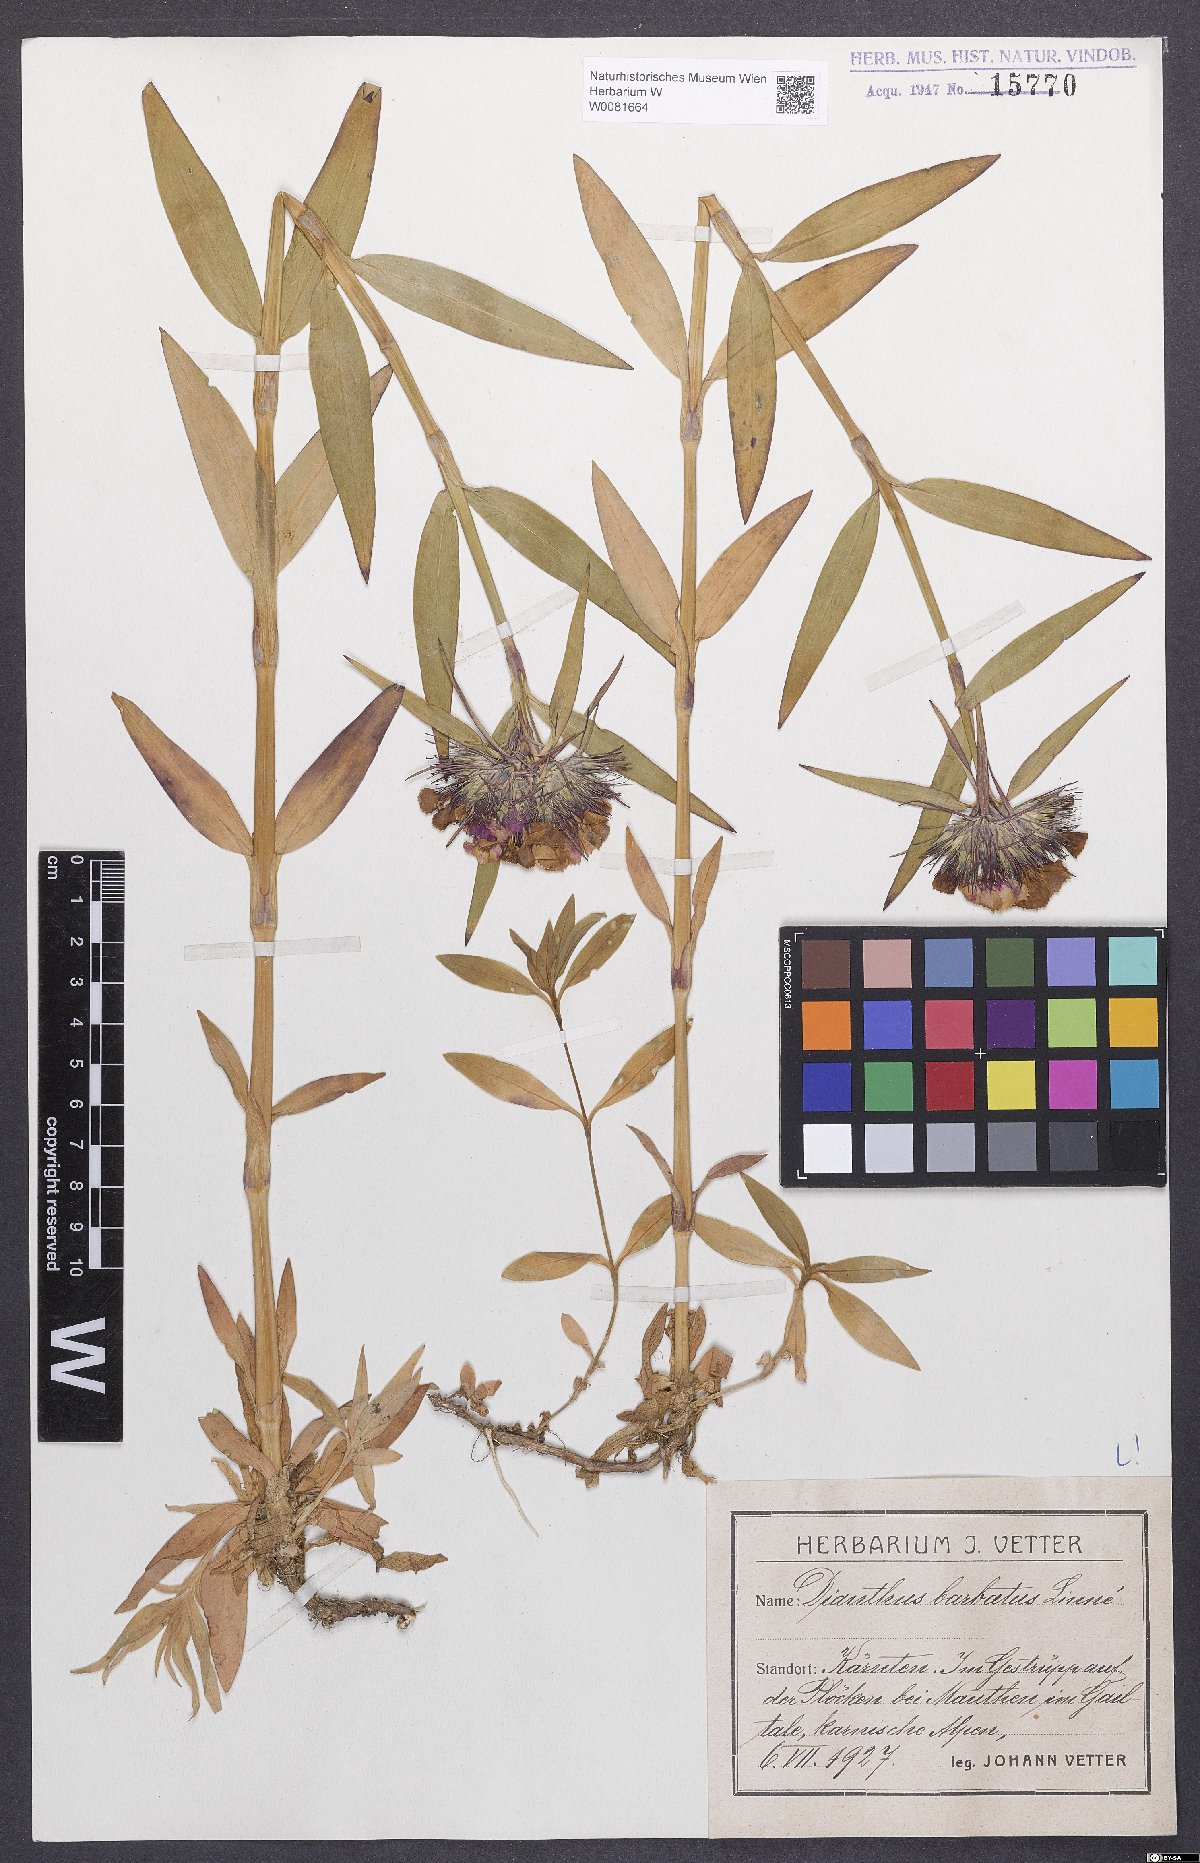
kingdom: Plantae
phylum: Tracheophyta
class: Magnoliopsida
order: Caryophyllales
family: Caryophyllaceae
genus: Dianthus
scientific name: Dianthus barbatus
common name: Sweet-william
